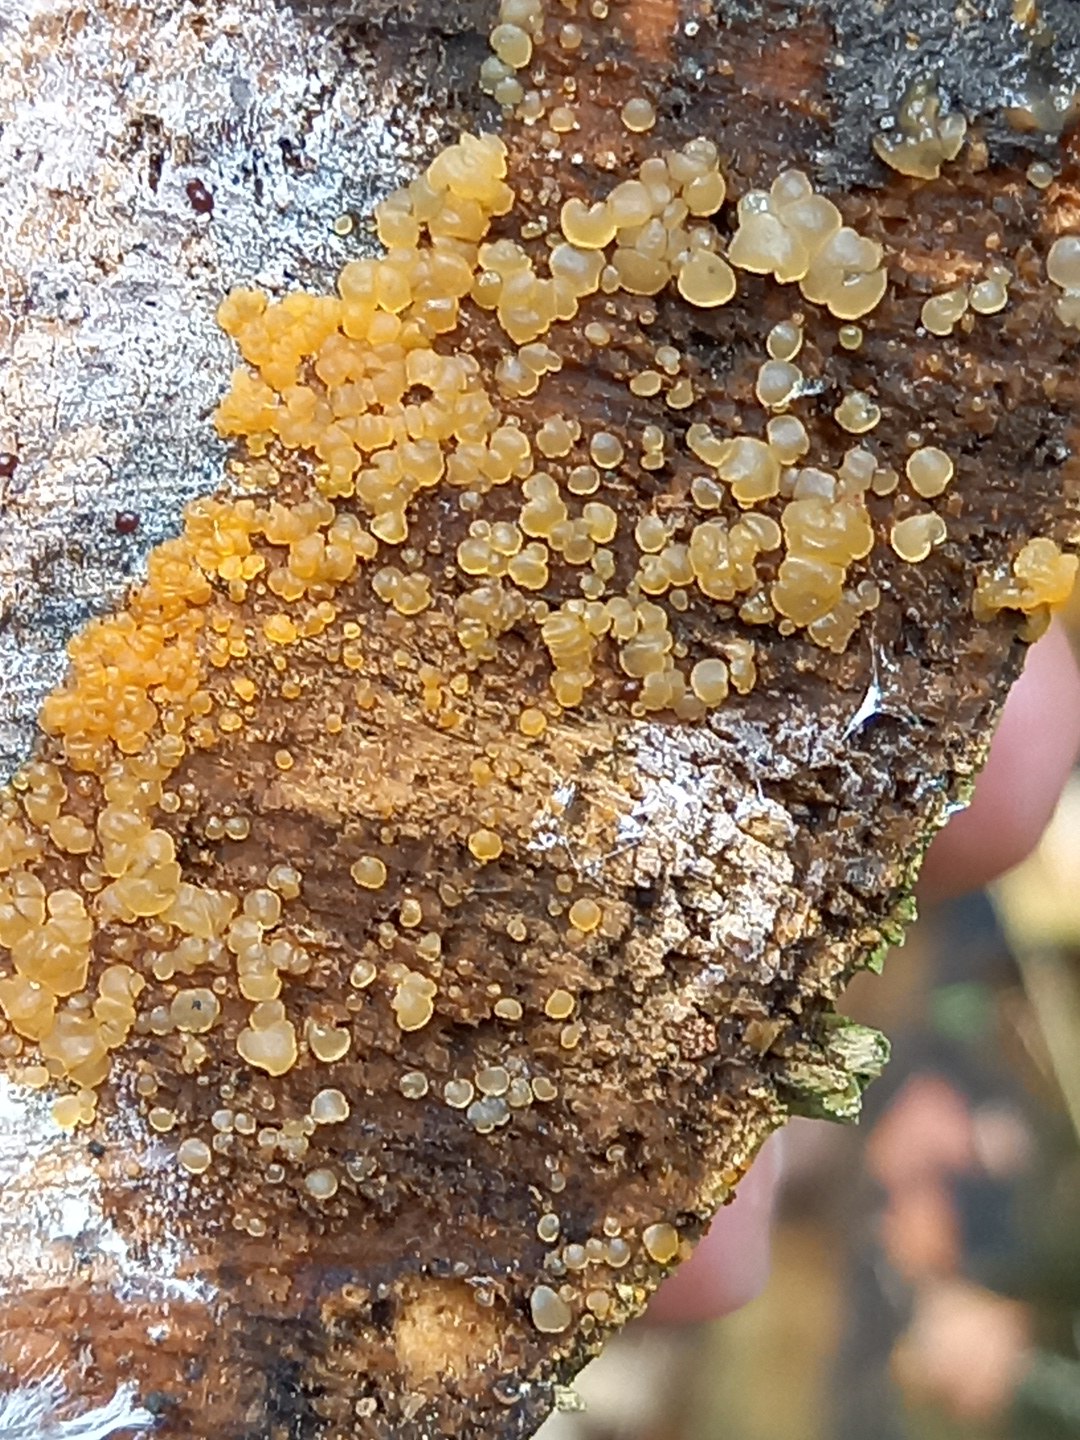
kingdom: Fungi
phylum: Basidiomycota
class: Dacrymycetes
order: Dacrymycetales
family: Dacrymycetaceae
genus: Dacrymyces
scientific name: Dacrymyces stillatus
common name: almindelig tåresvamp
